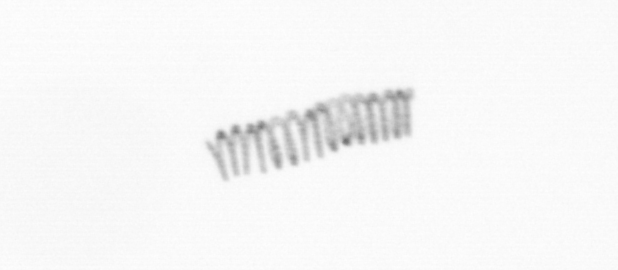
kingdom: Chromista
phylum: Ochrophyta
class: Bacillariophyceae
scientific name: Bacillariophyceae
